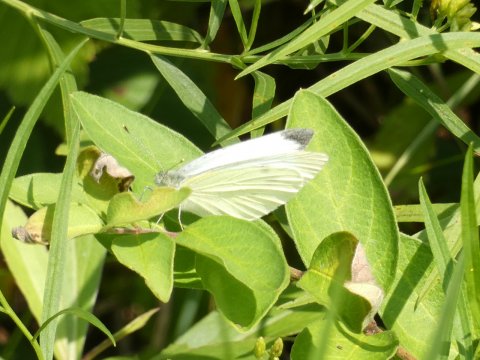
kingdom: Animalia
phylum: Arthropoda
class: Insecta
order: Lepidoptera
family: Pieridae
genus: Pieris
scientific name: Pieris rapae
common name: Cabbage White
